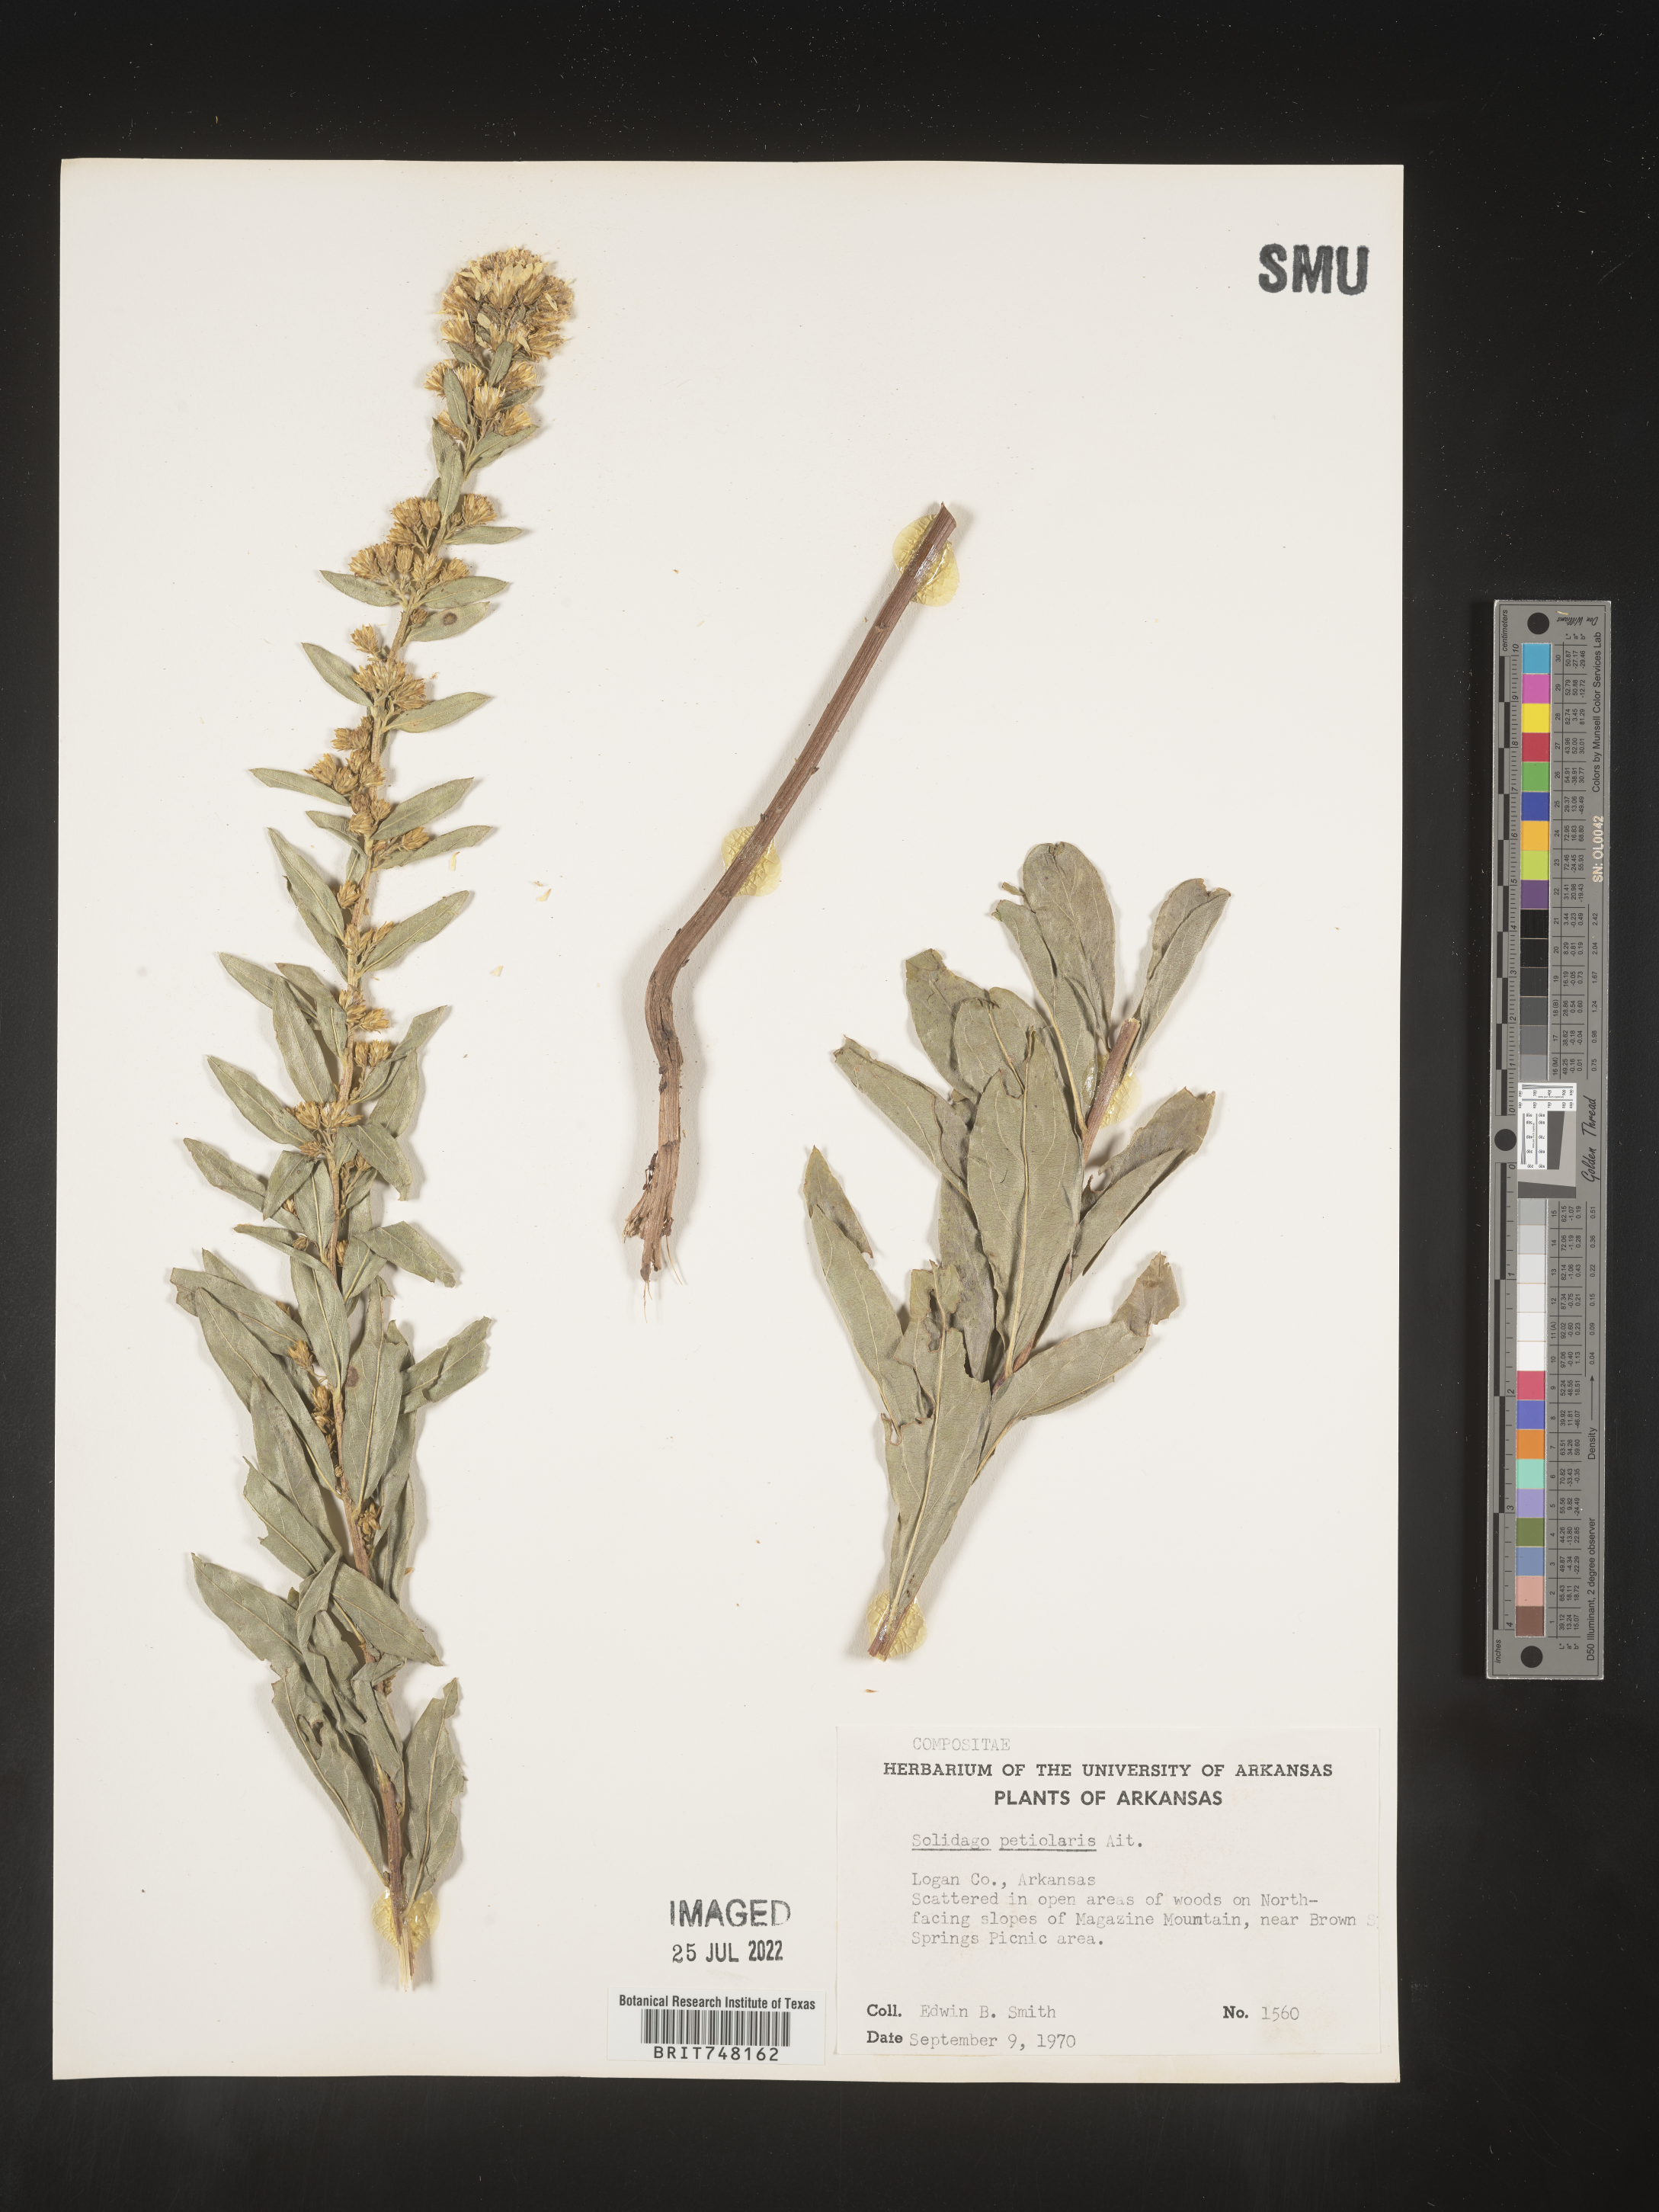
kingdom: Plantae
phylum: Tracheophyta
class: Magnoliopsida
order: Asterales
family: Asteraceae
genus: Solidago
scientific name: Solidago petiolaris
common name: Downy ragged goldenrod
